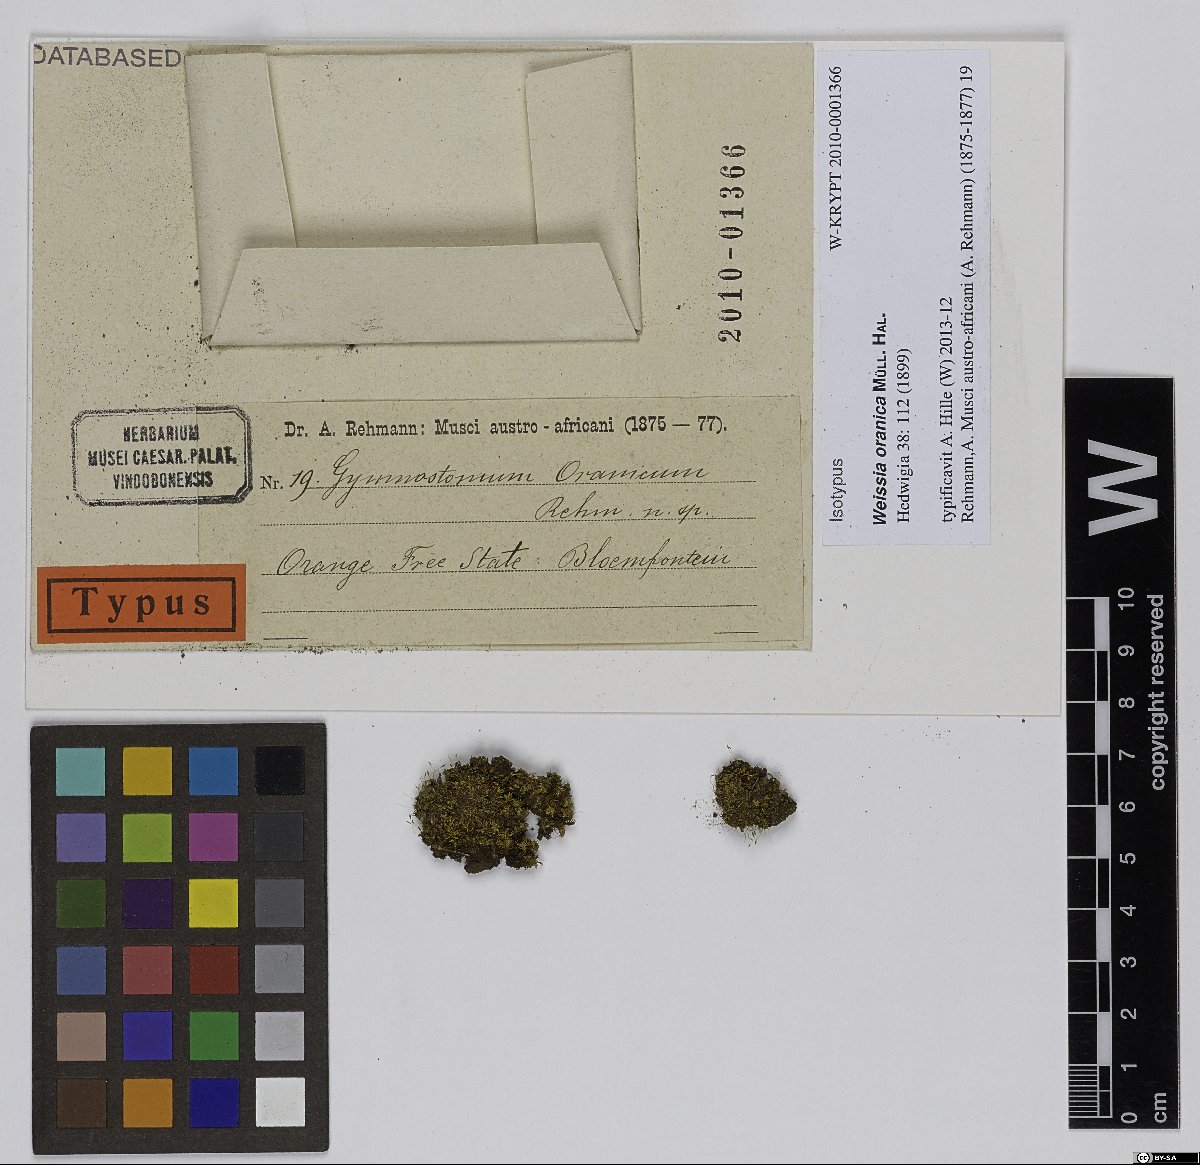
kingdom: Plantae
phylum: Bryophyta
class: Bryopsida
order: Pottiales
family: Pottiaceae
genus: Weissia
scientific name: Weissia controversa
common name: Green-tufted stubble moss
